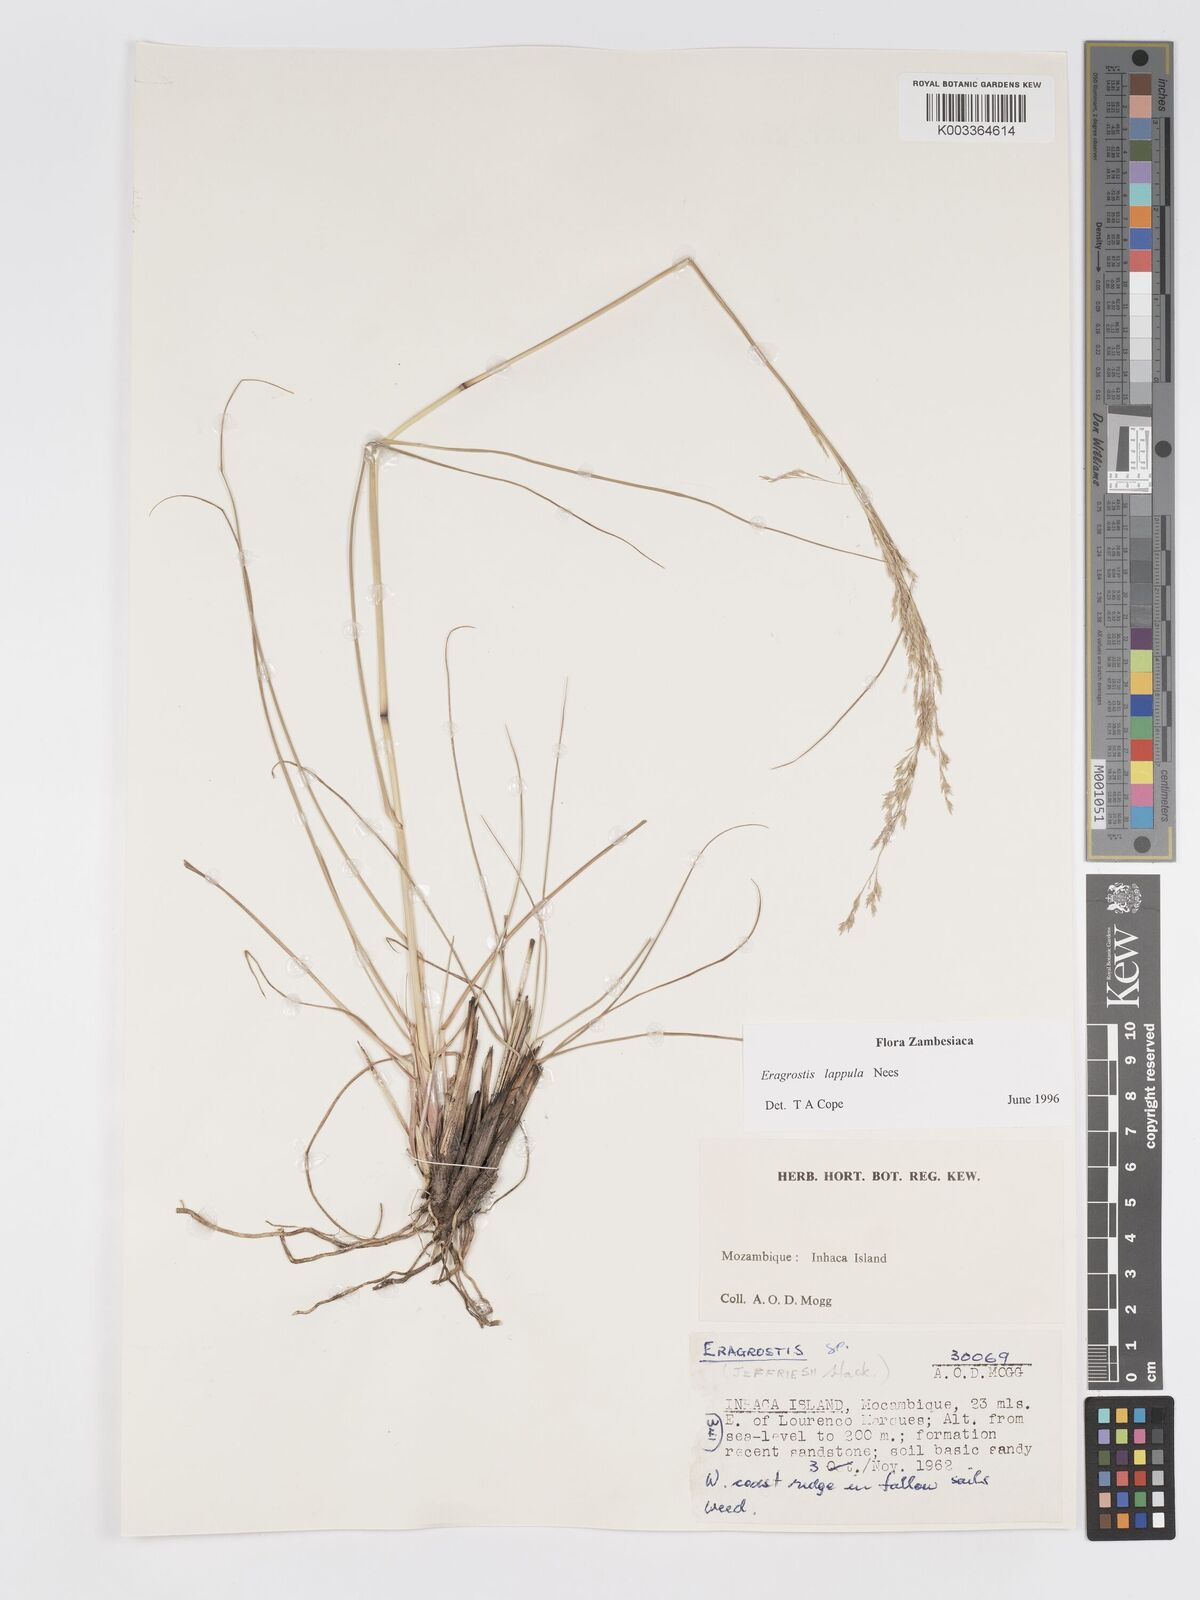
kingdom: Plantae
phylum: Tracheophyta
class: Liliopsida
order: Poales
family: Poaceae
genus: Eragrostis
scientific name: Eragrostis lappula
